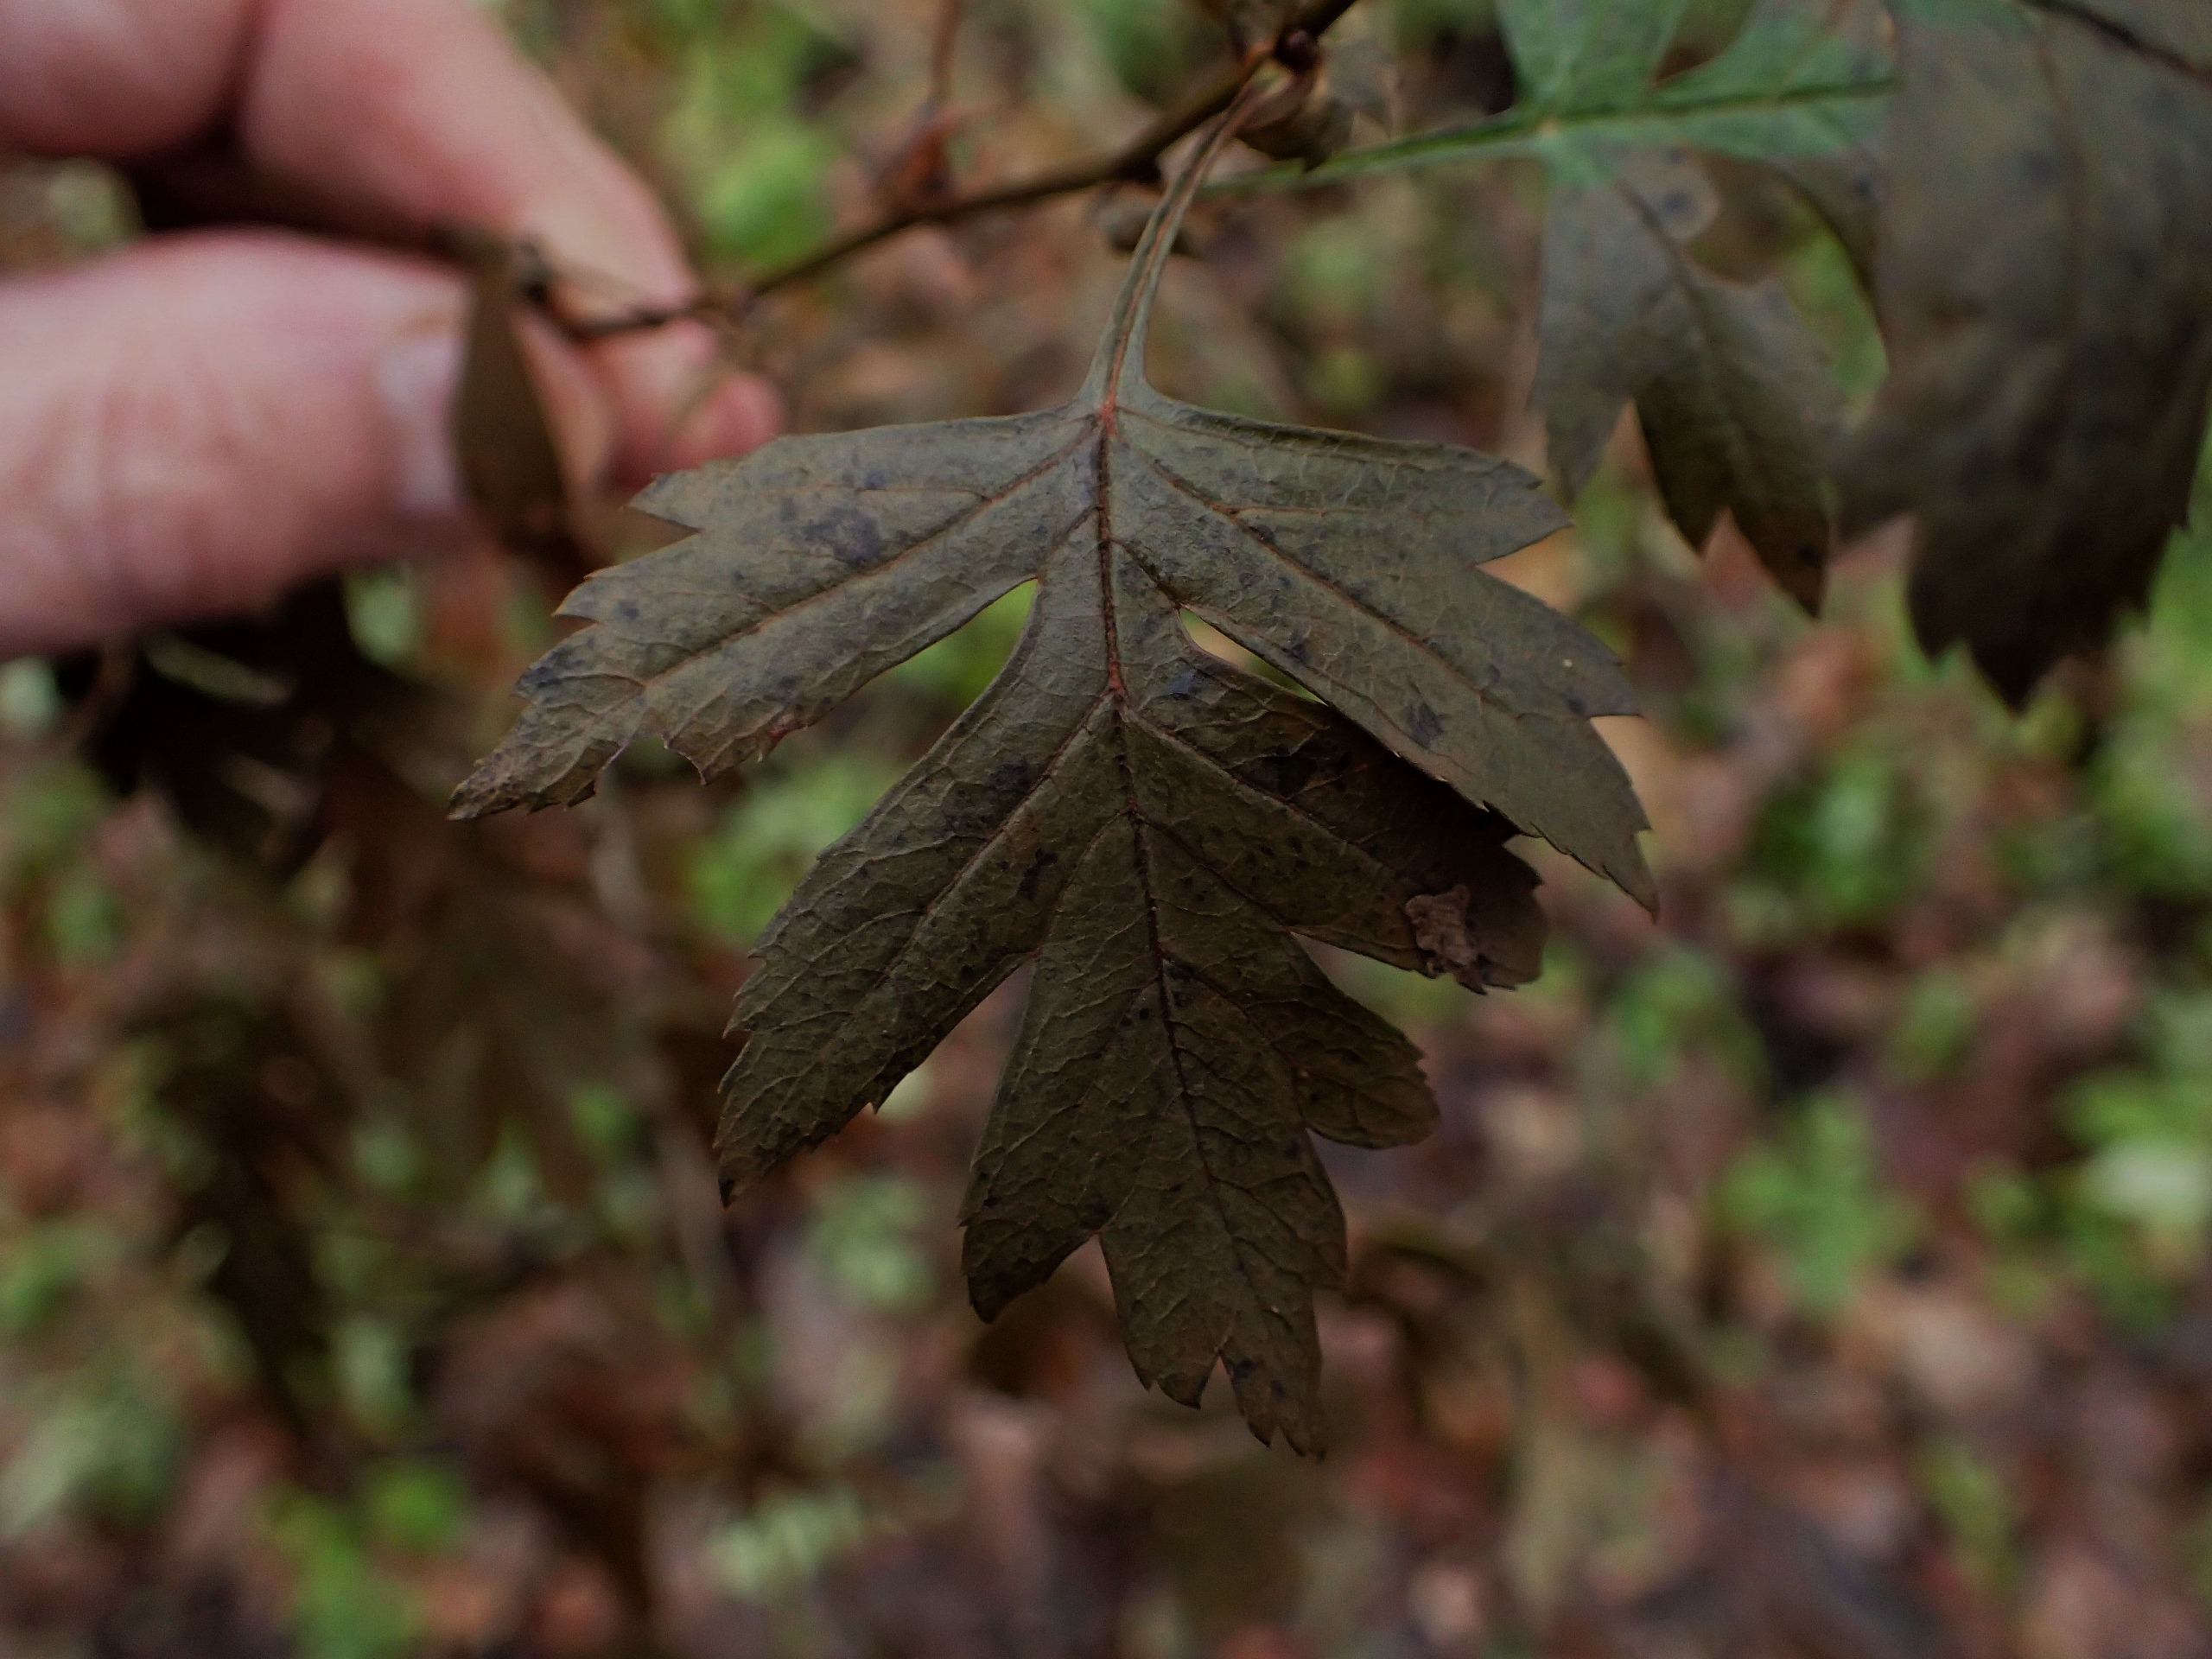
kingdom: Plantae
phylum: Tracheophyta
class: Magnoliopsida
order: Rosales
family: Rosaceae
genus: Crataegus
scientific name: Crataegus subsphaerica
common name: Engriflet hvidtjørn × koral-hvidtjørn
